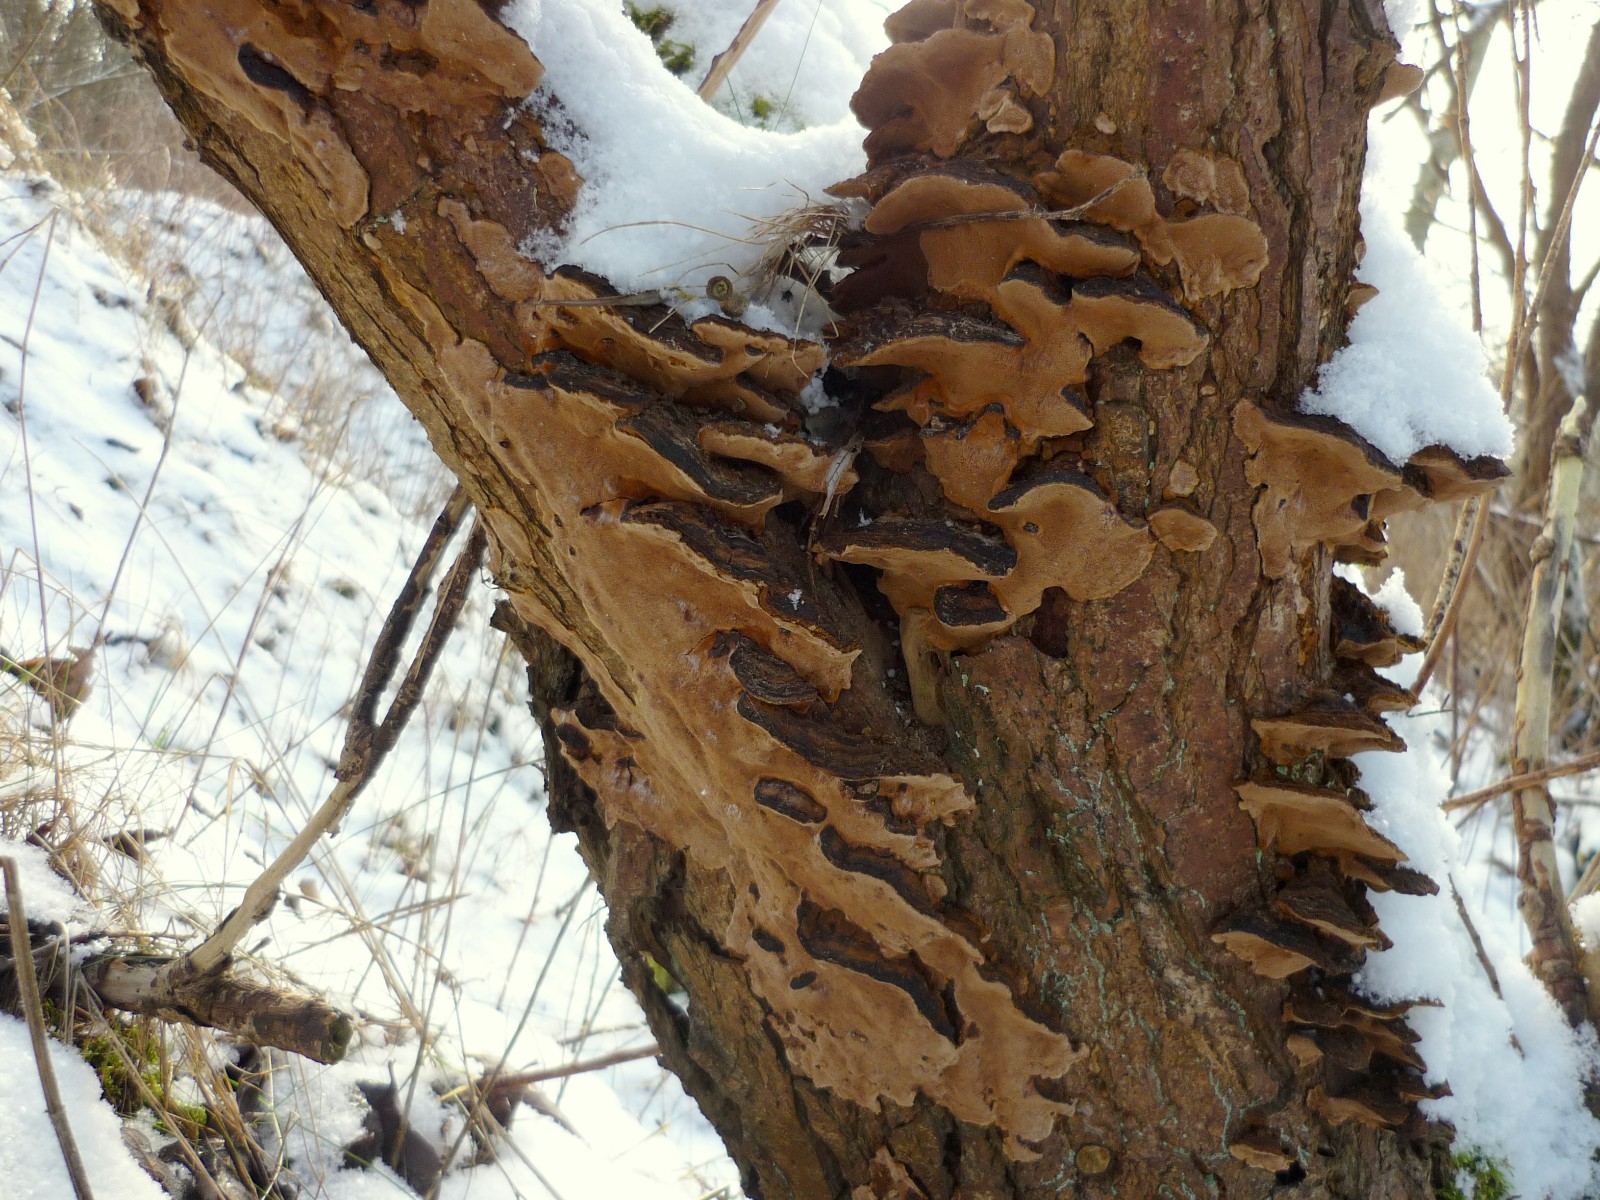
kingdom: Fungi
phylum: Basidiomycota
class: Agaricomycetes
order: Hymenochaetales
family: Hymenochaetaceae
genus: Phellinopsis
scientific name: Phellinopsis conchata
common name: pile-ildporesvamp
